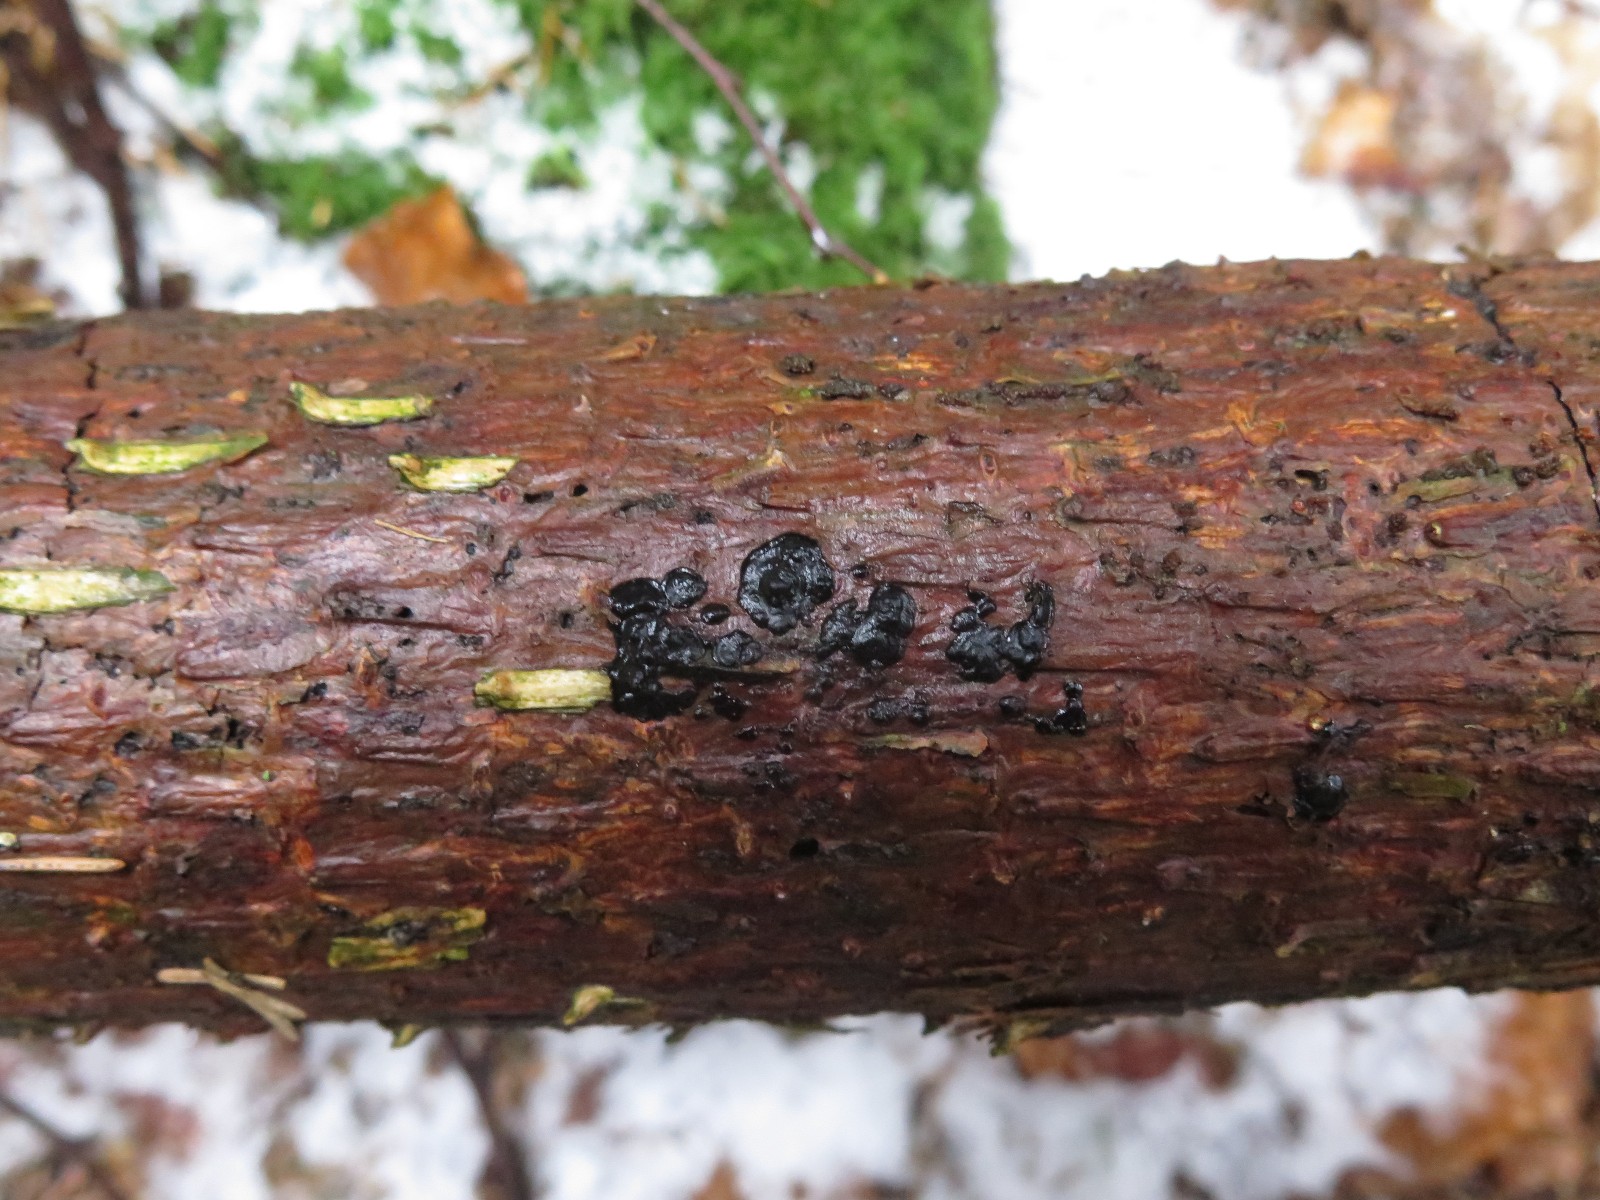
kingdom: Fungi
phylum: Basidiomycota
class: Agaricomycetes
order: Auriculariales
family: Auriculariaceae
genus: Exidia
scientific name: Exidia pithya
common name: gran-bævretop
